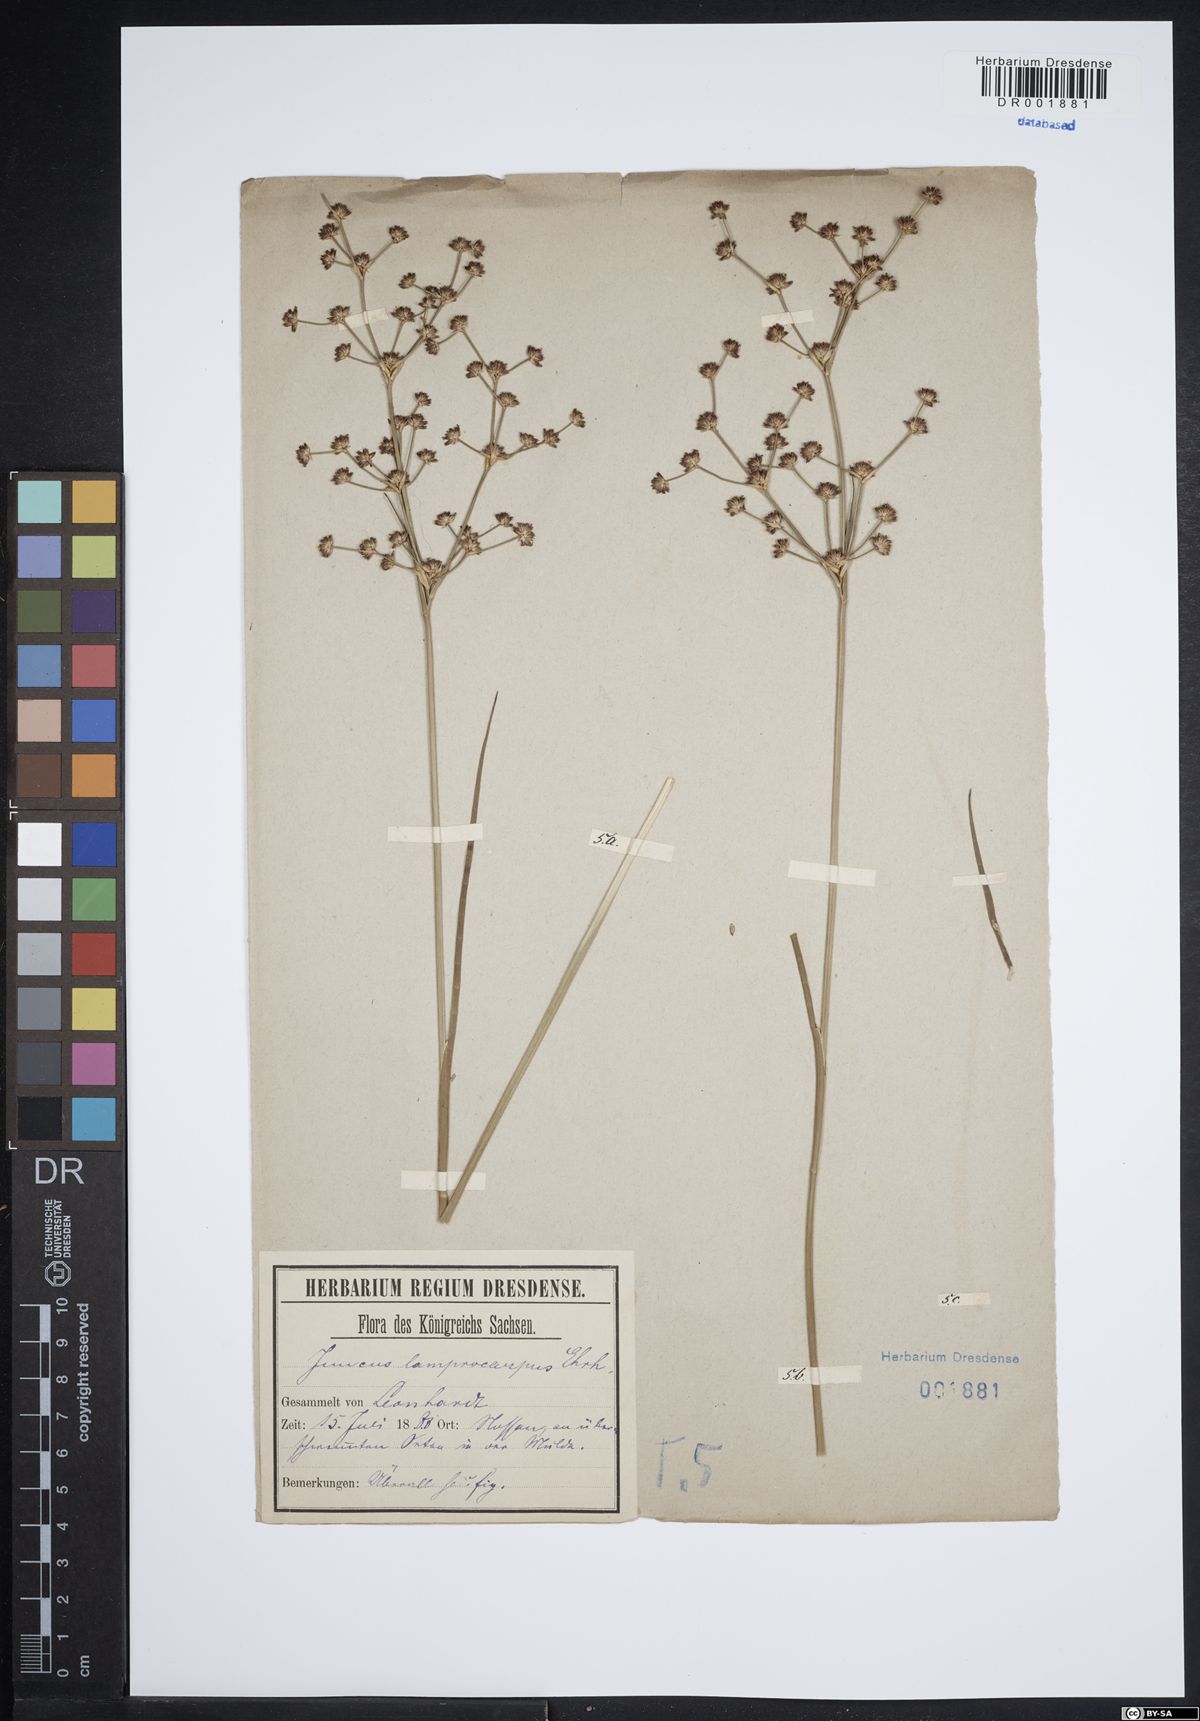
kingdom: Plantae
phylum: Tracheophyta
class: Liliopsida
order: Poales
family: Juncaceae
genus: Juncus
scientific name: Juncus articulatus
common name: Jointed rush
